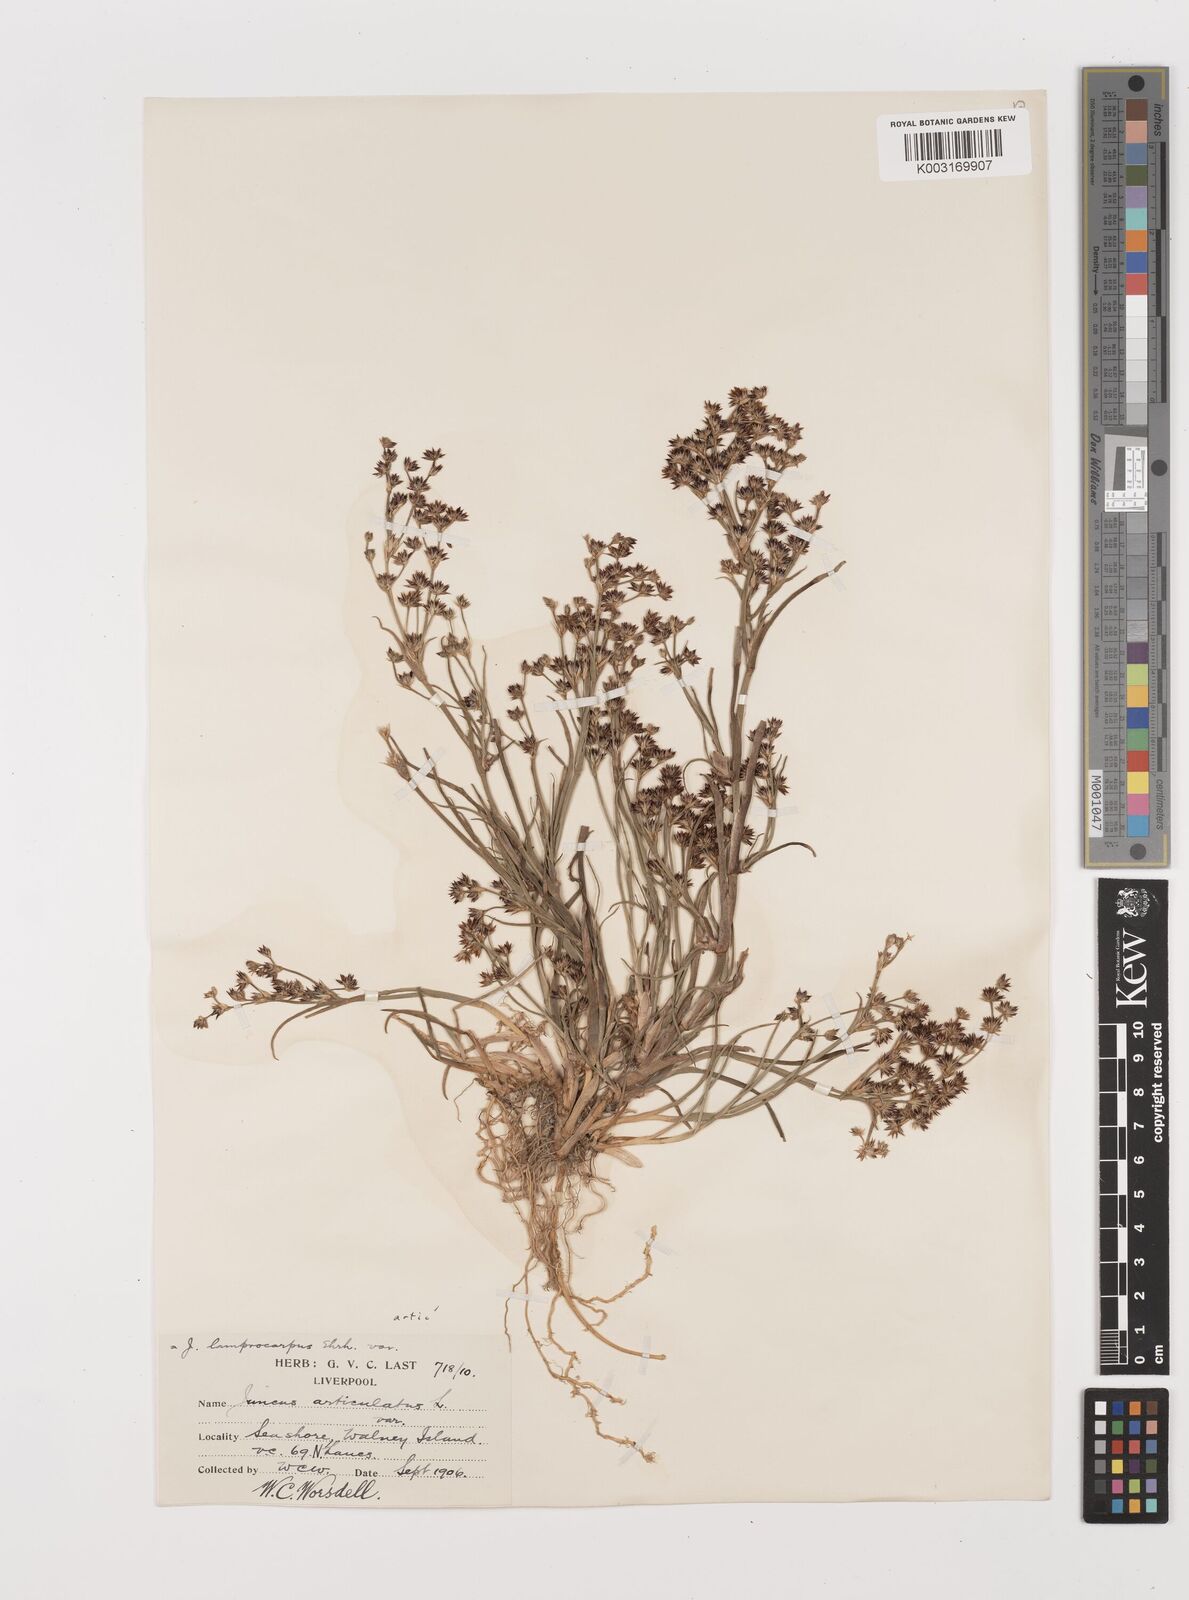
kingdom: Plantae
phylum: Tracheophyta
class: Liliopsida
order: Poales
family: Juncaceae
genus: Juncus
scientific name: Juncus articulatus
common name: Jointed rush
